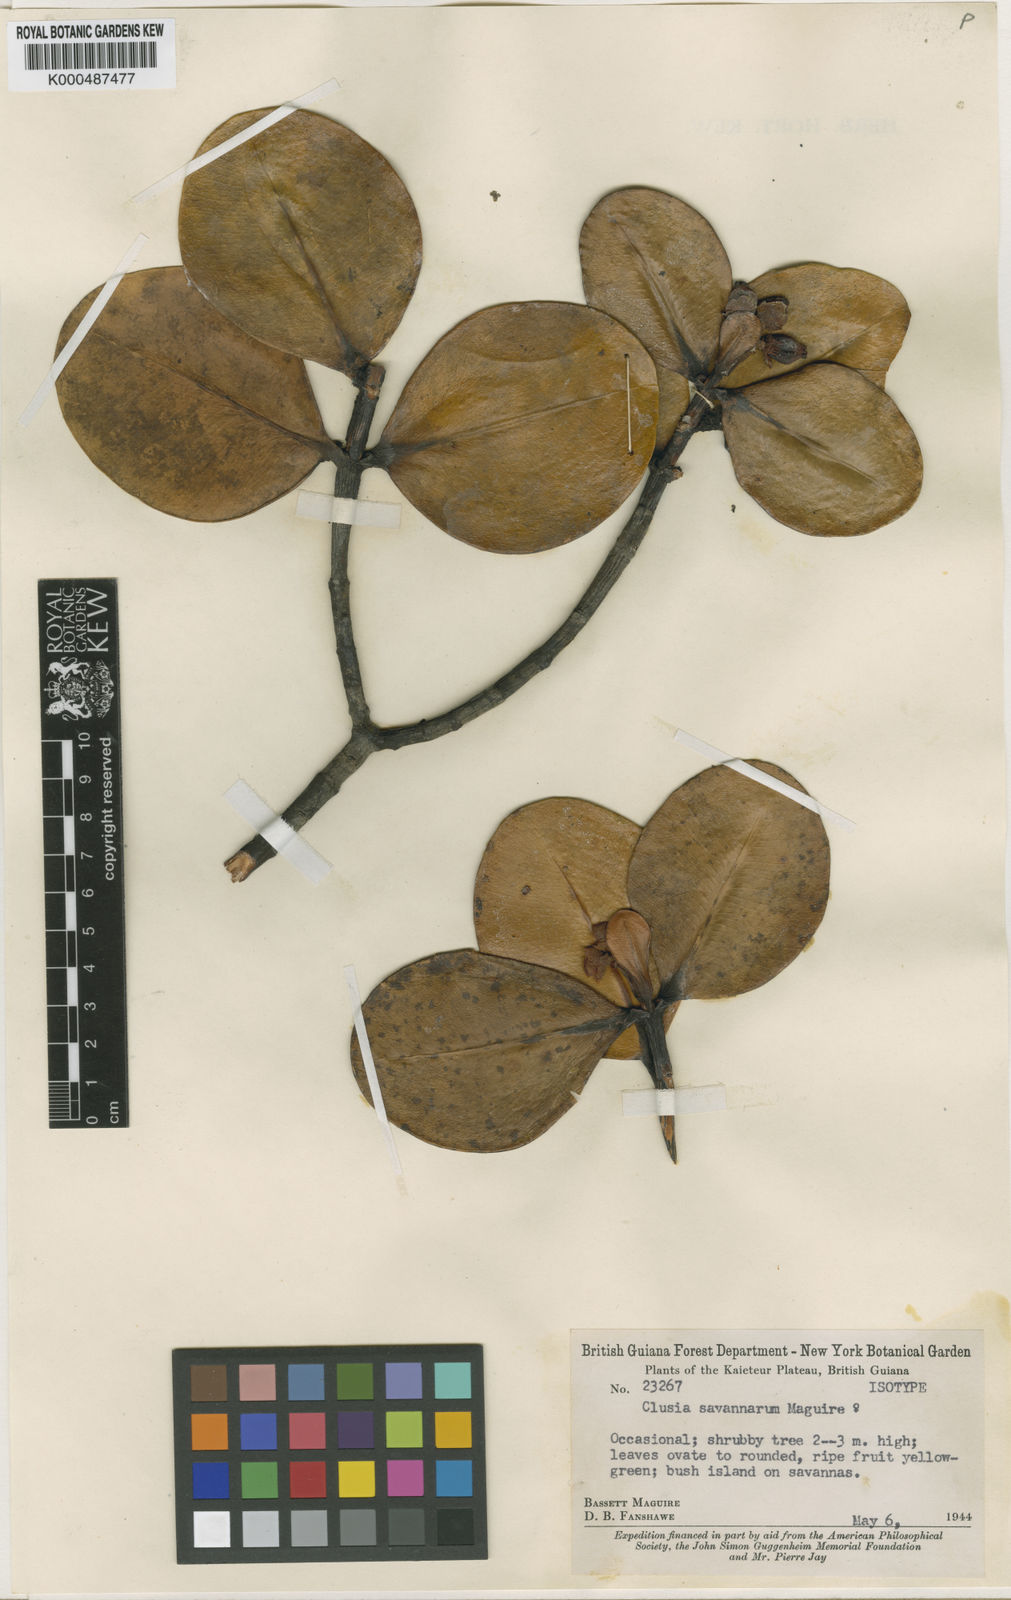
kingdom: Plantae
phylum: Tracheophyta
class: Magnoliopsida
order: Malpighiales
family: Clusiaceae
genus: Clusia
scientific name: Clusia savannarum
